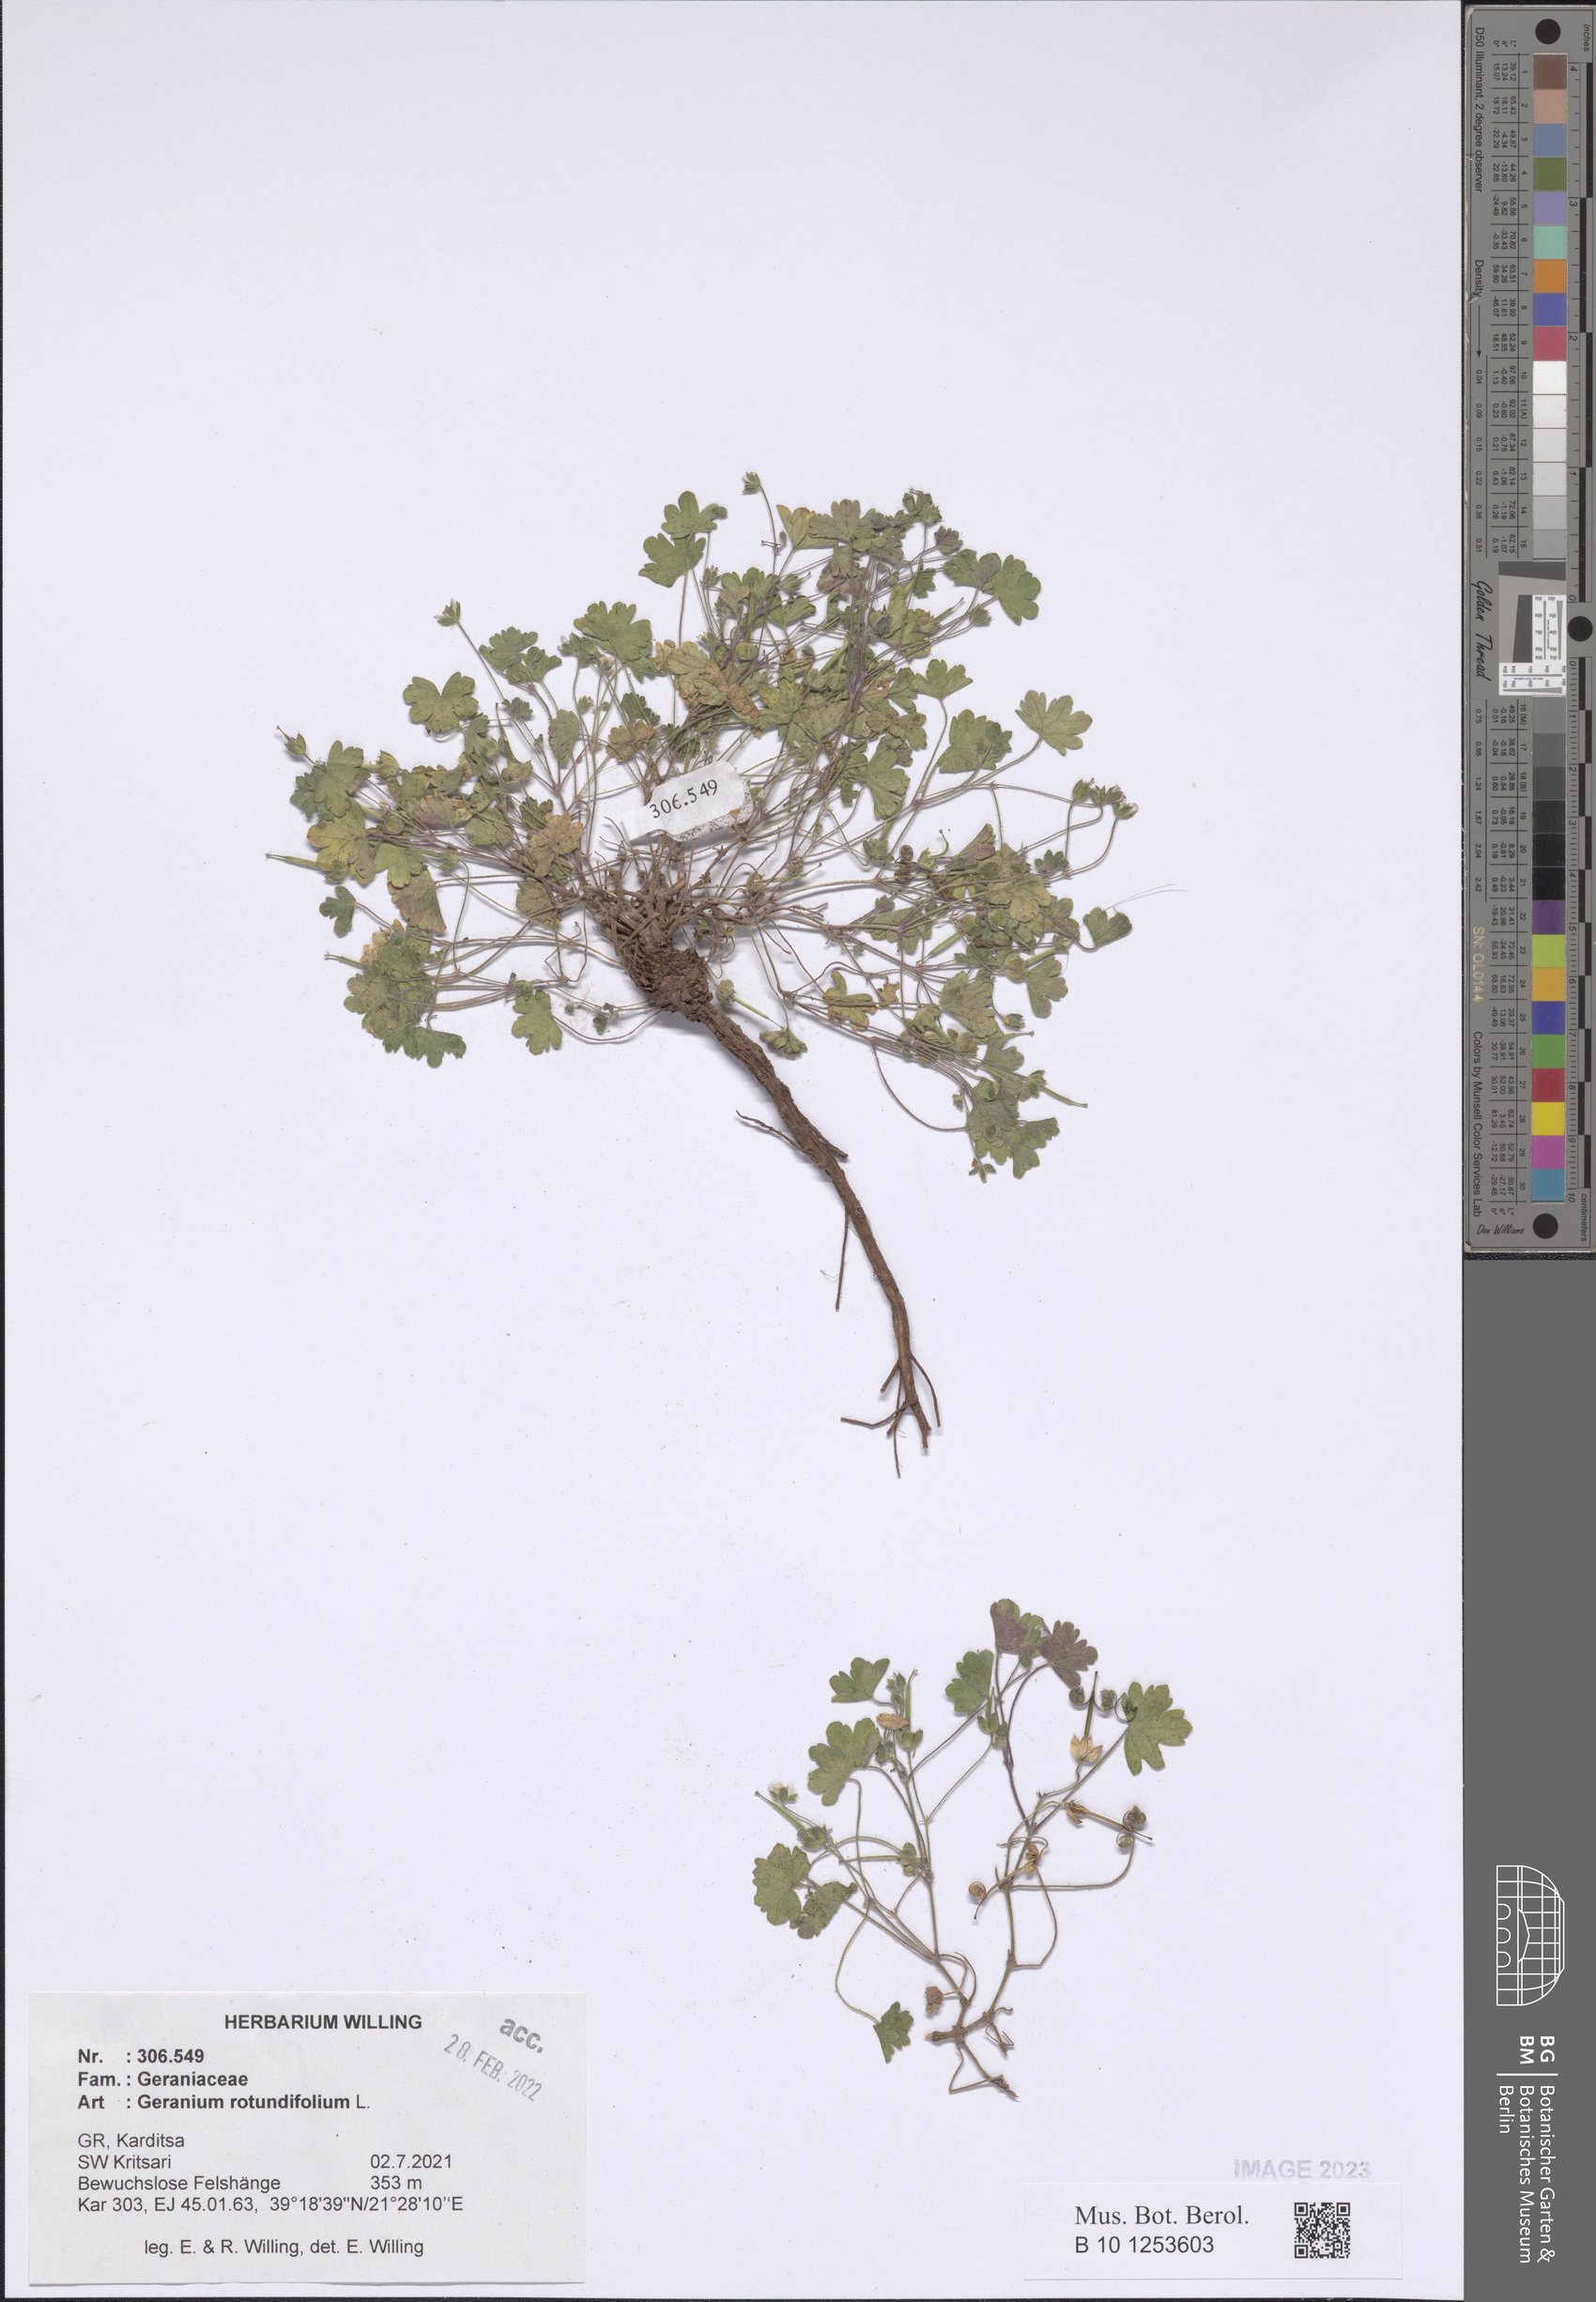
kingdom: Plantae
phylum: Tracheophyta
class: Magnoliopsida
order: Geraniales
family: Geraniaceae
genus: Geranium
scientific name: Geranium rotundifolium
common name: Round-leaved crane's-bill
